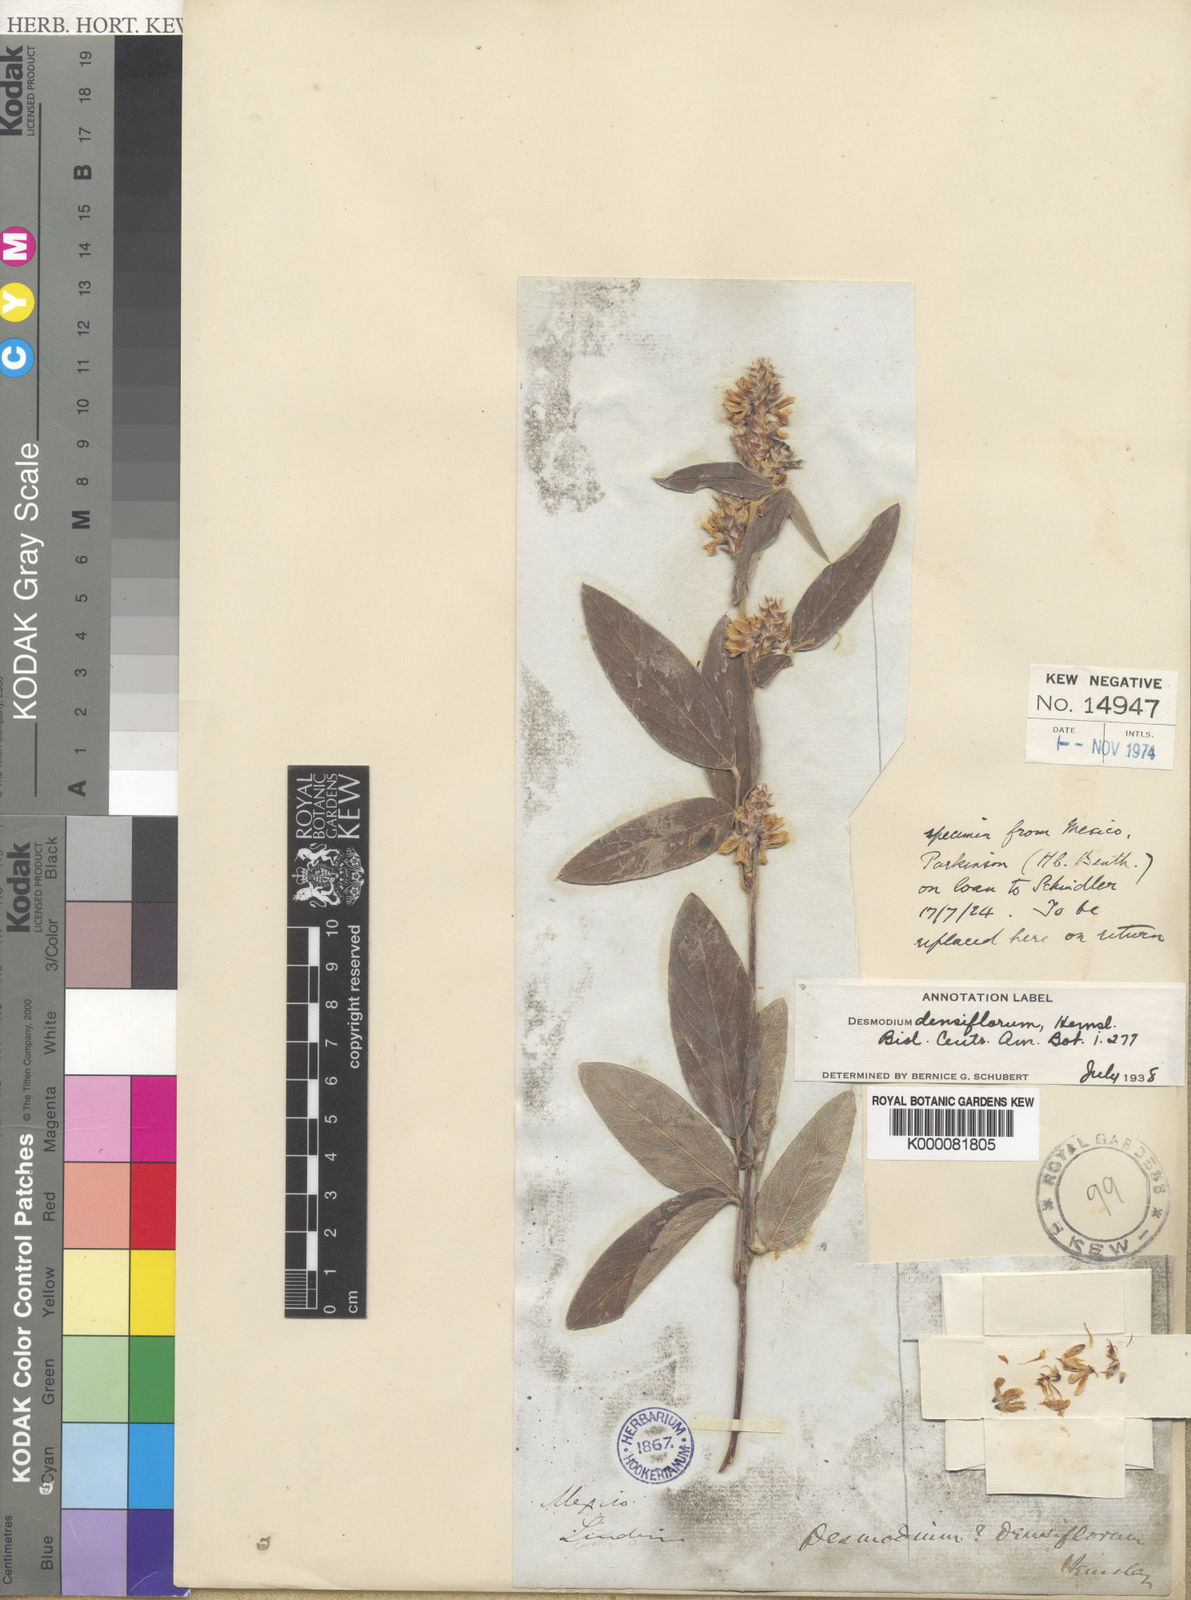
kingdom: Plantae
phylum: Tracheophyta
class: Magnoliopsida
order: Fabales
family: Fabaceae
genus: Desmodium
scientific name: Desmodium densiflorum
